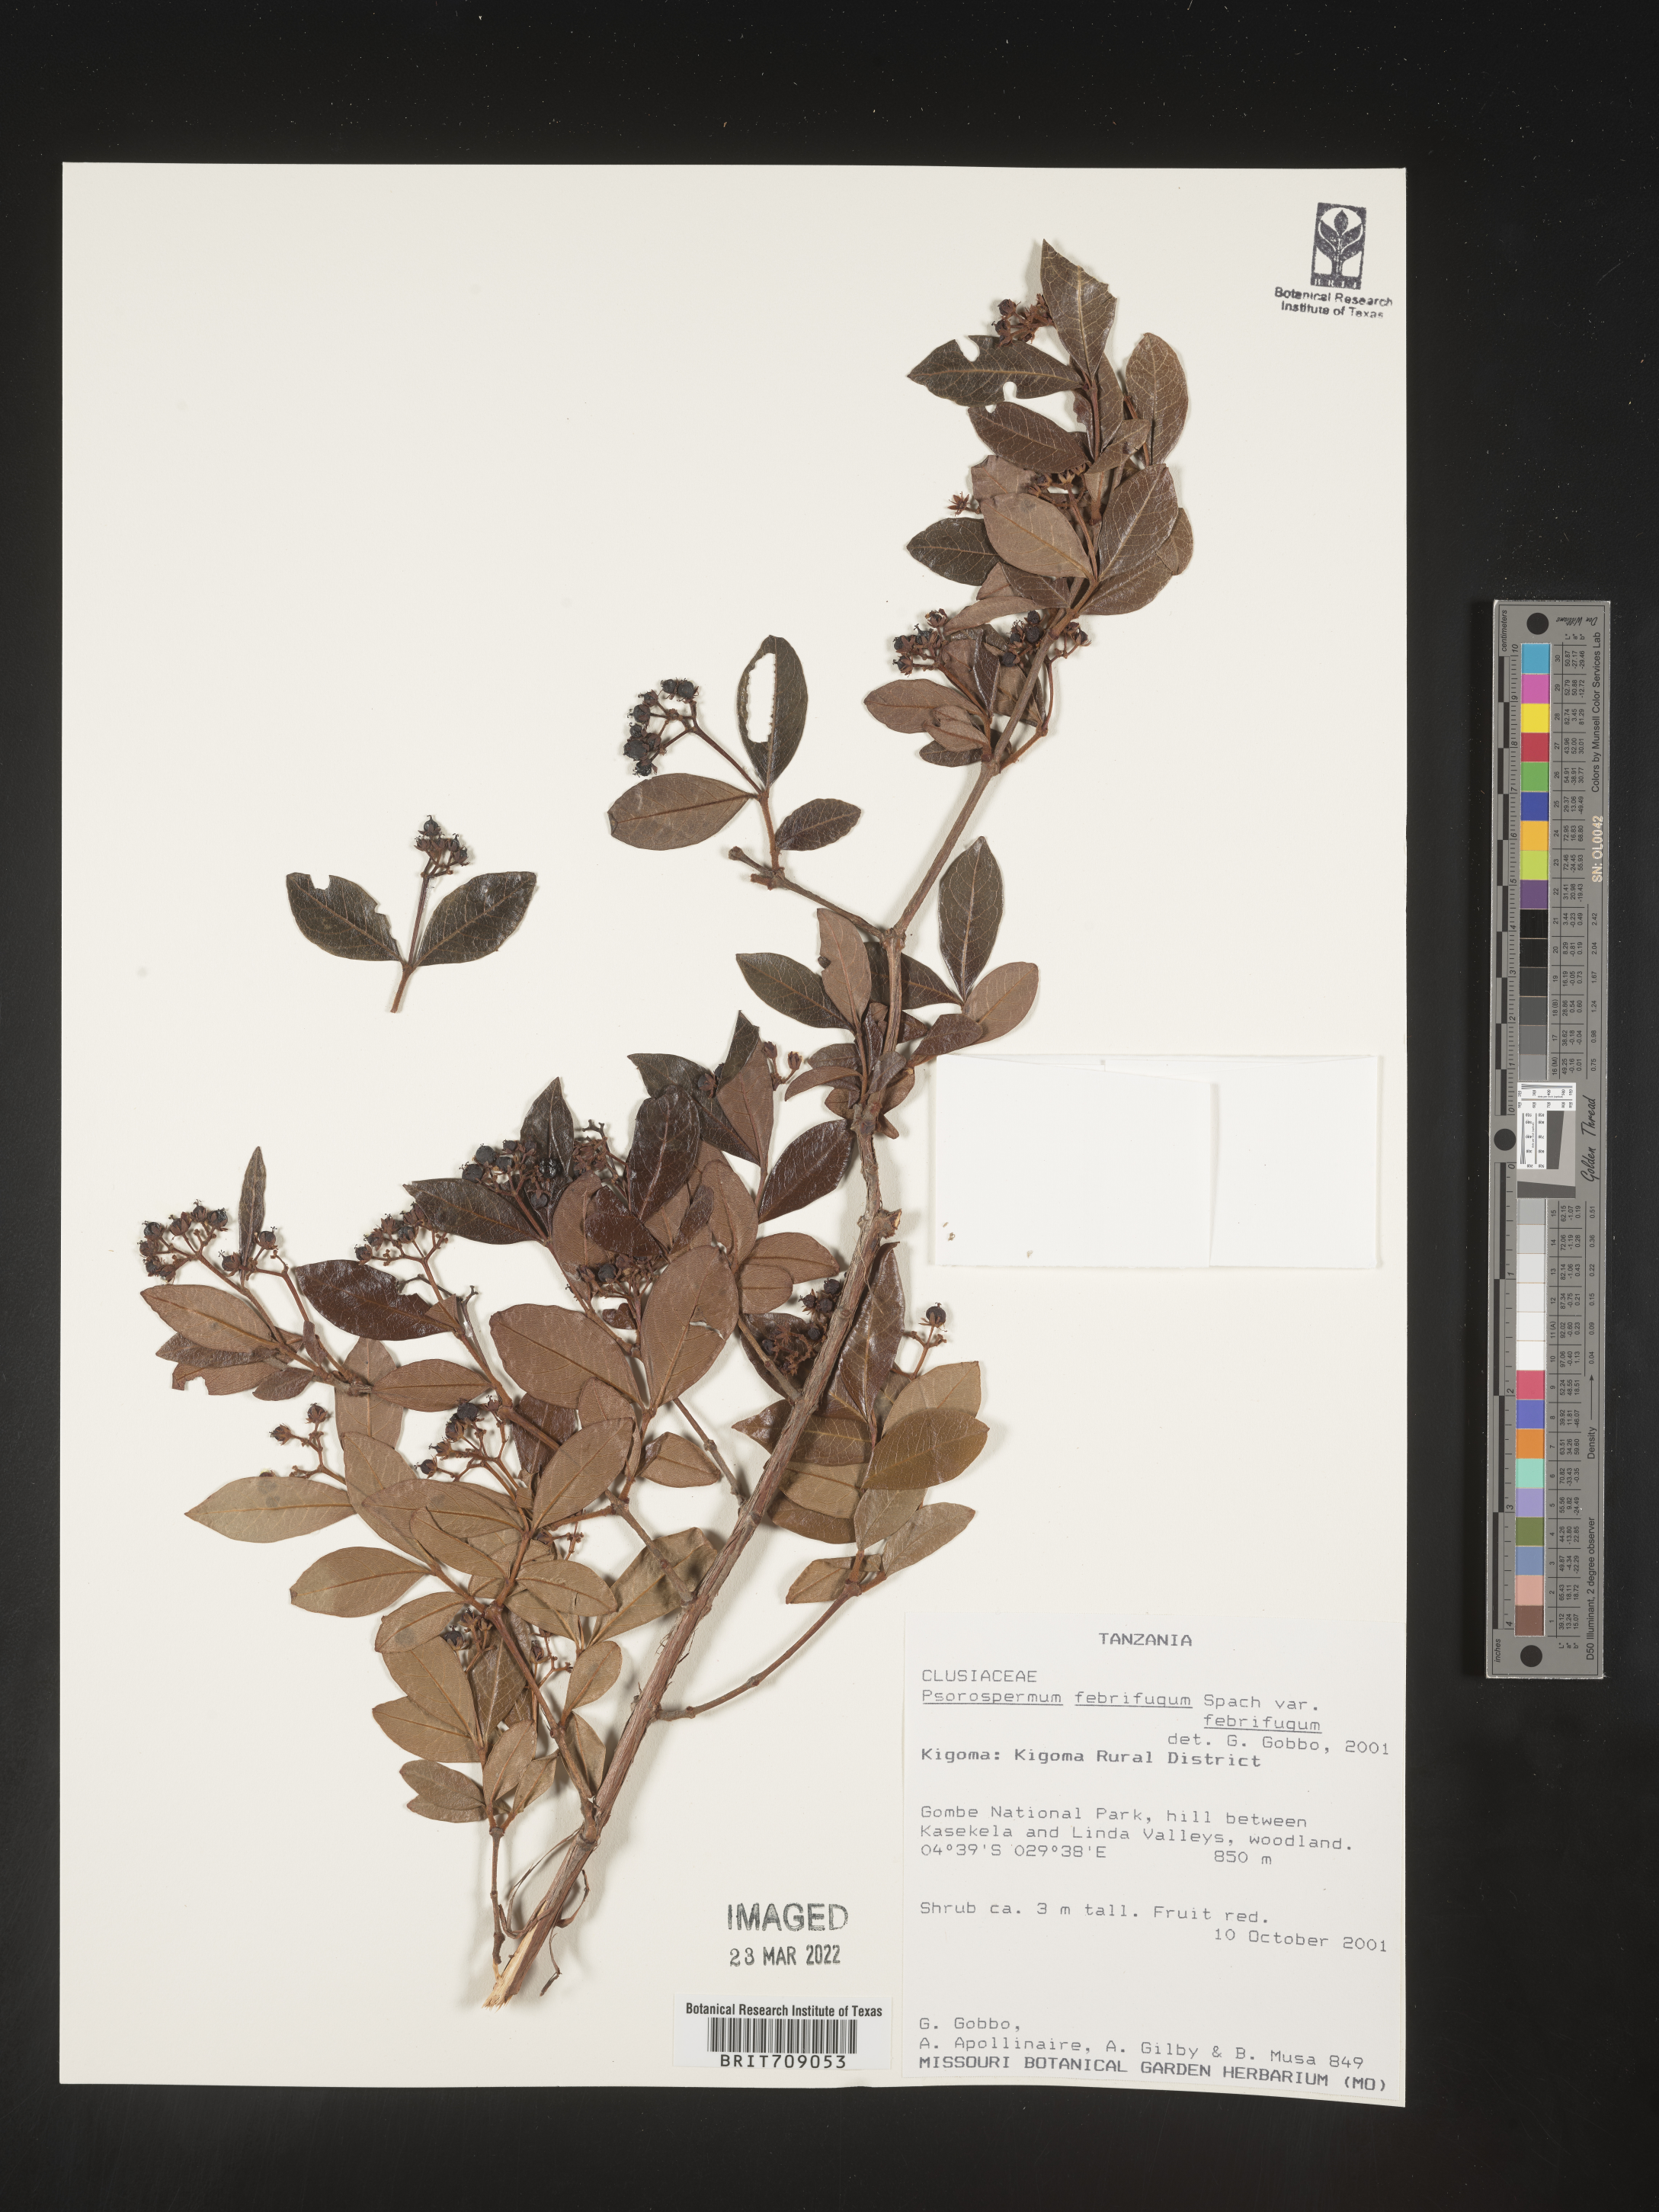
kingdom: Plantae
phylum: Tracheophyta
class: Magnoliopsida
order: Malpighiales
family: Hypericaceae
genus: Psorospermum
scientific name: Psorospermum
